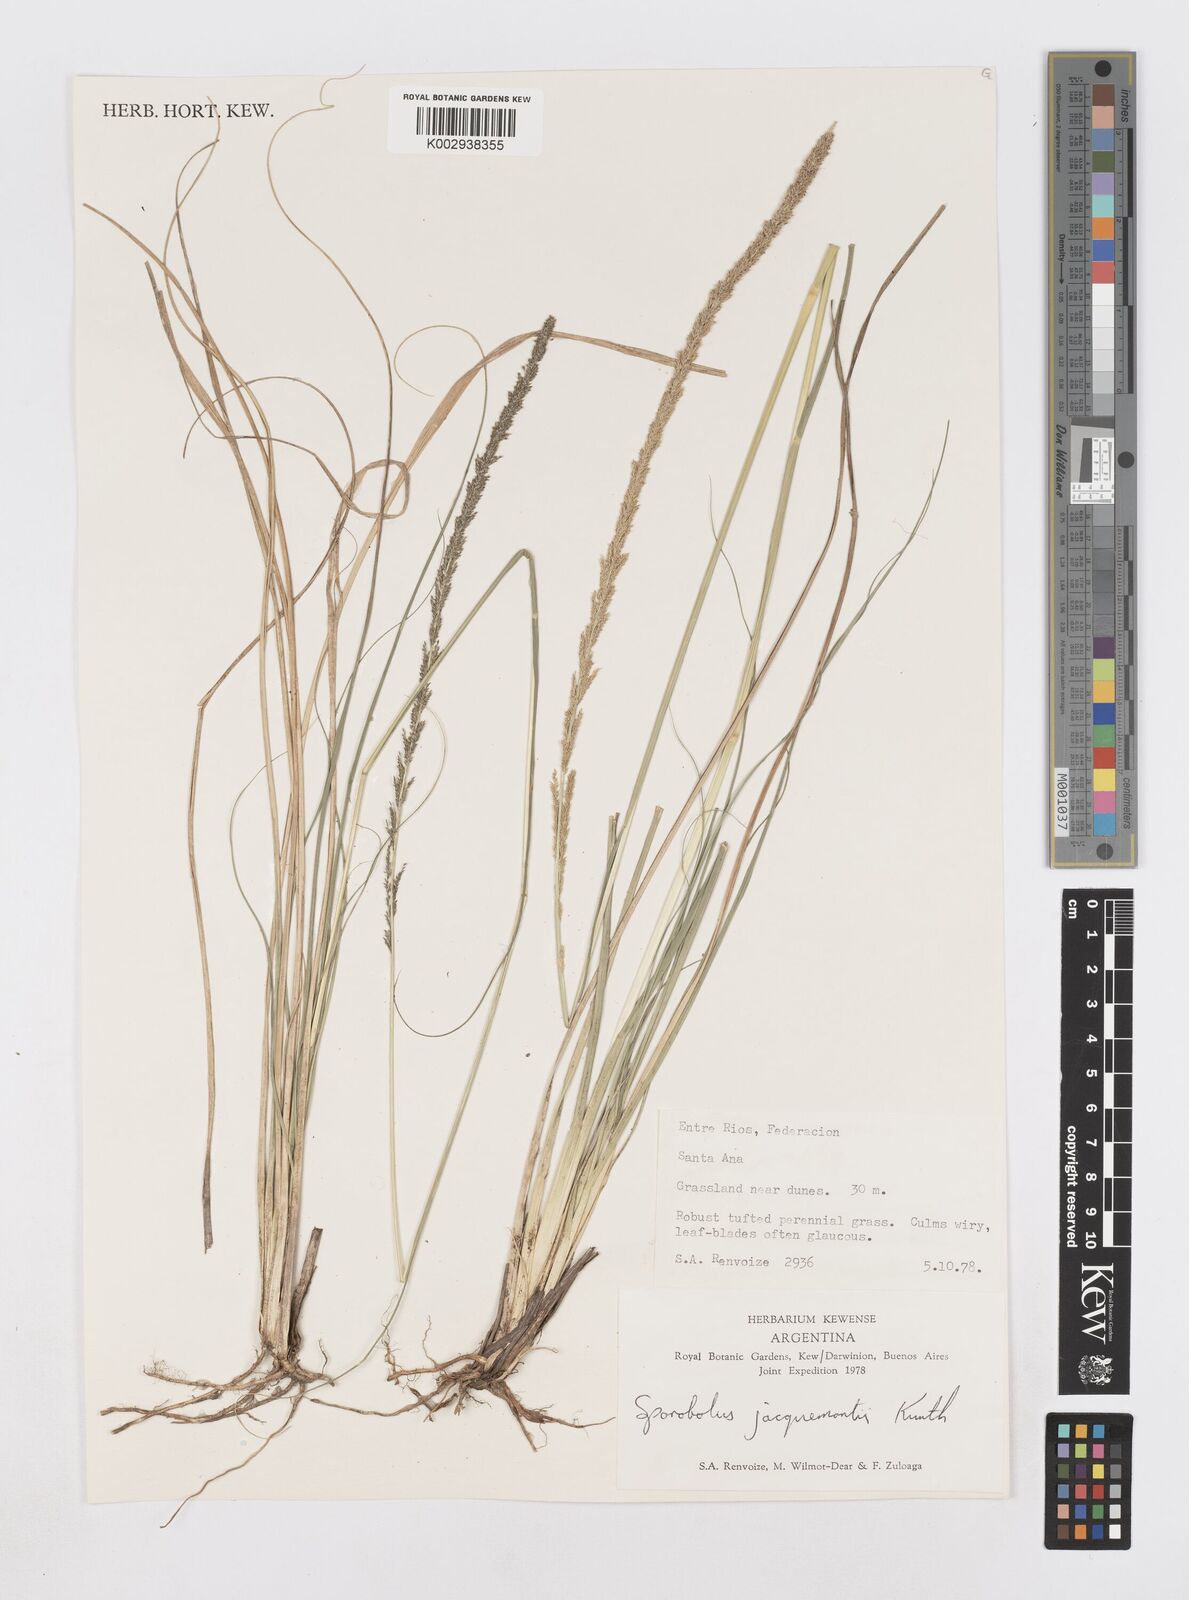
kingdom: Plantae
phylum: Tracheophyta
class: Liliopsida
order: Poales
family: Poaceae
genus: Sporobolus
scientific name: Sporobolus pyramidalis
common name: West indian dropseed
